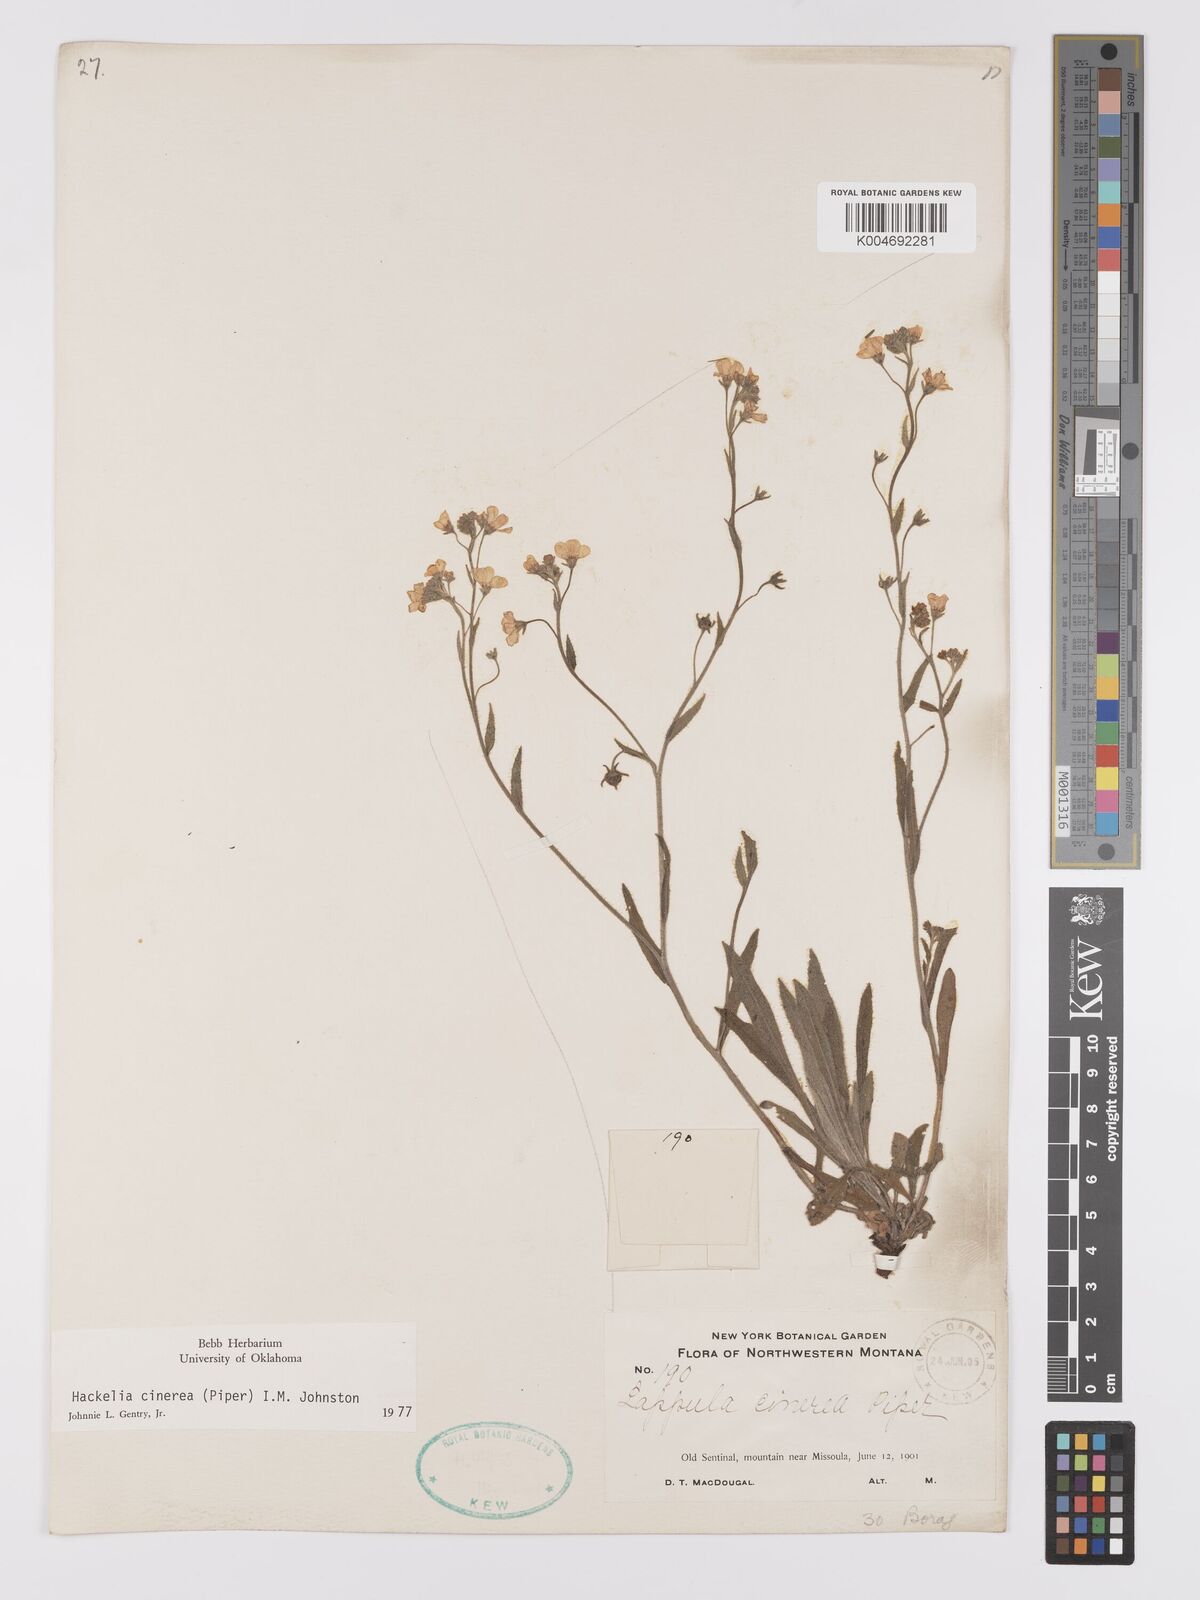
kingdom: Plantae
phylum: Tracheophyta
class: Magnoliopsida
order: Boraginales
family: Boraginaceae
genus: Hackelia
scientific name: Hackelia cinerea
